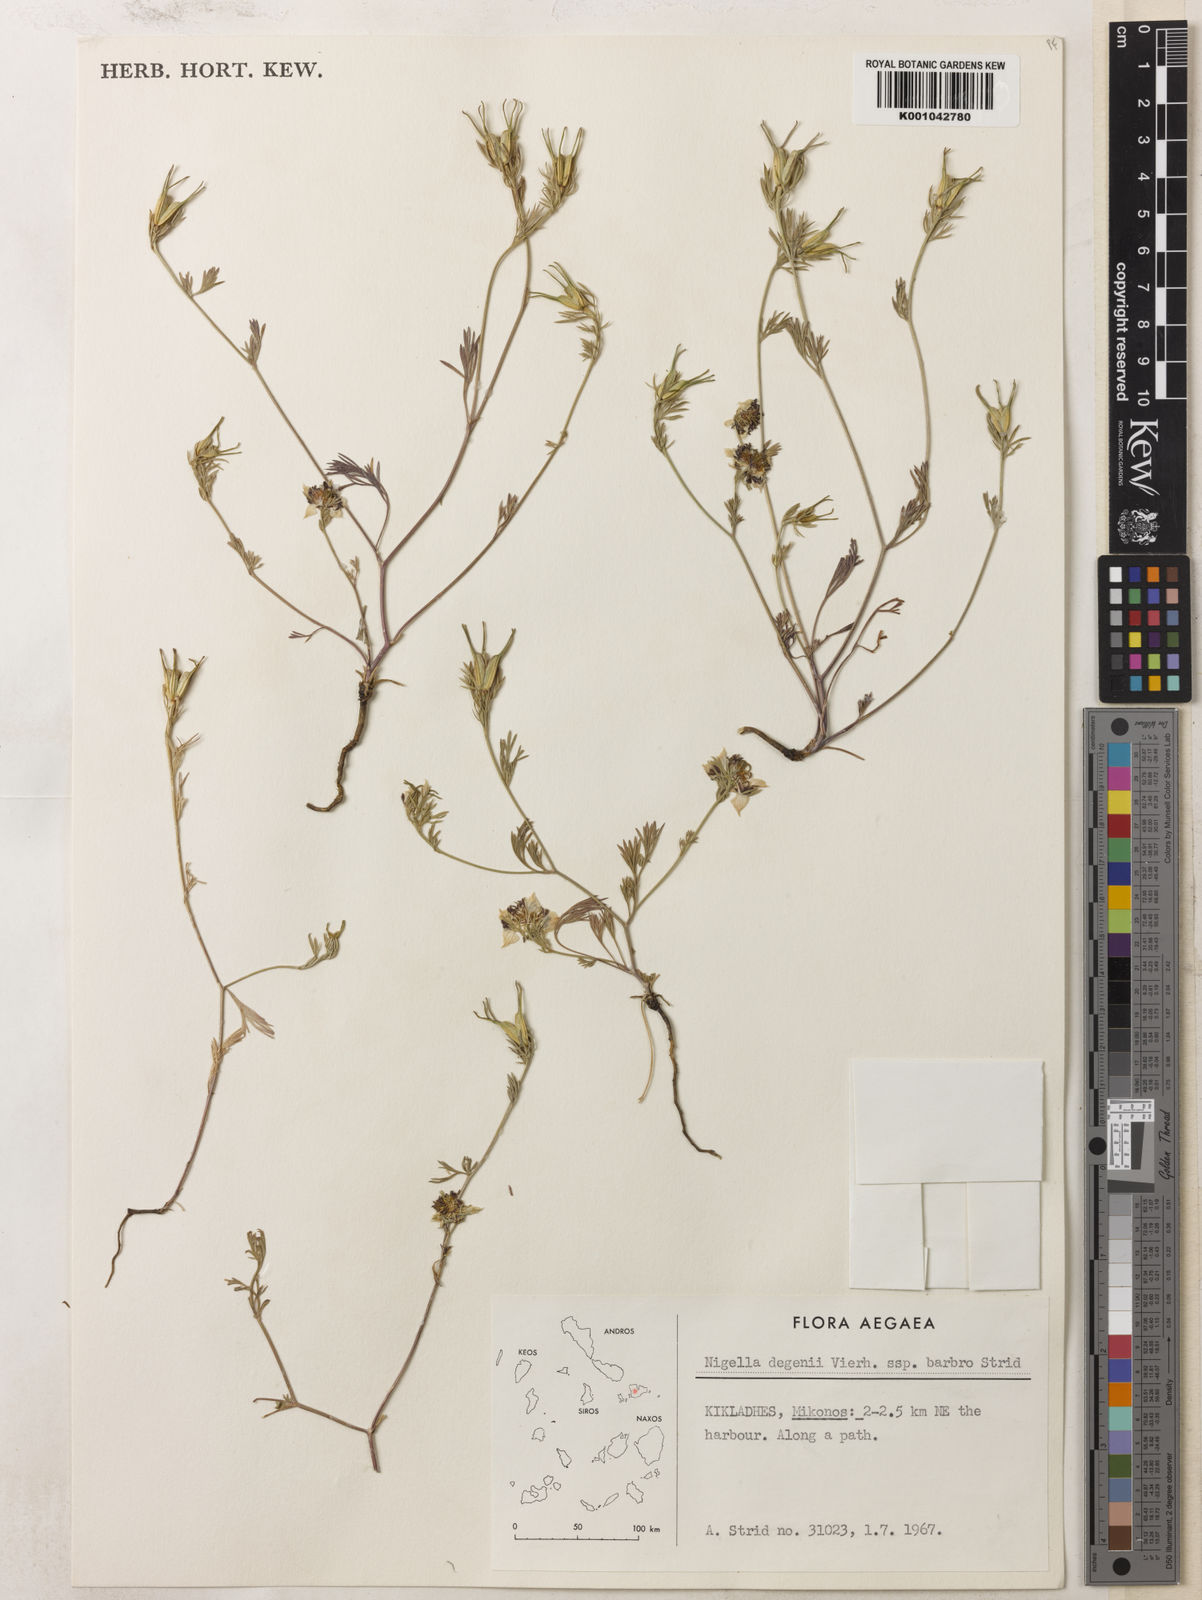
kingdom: Plantae
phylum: Tracheophyta
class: Magnoliopsida
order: Ranunculales
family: Ranunculaceae
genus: Nigella
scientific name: Nigella degenii
